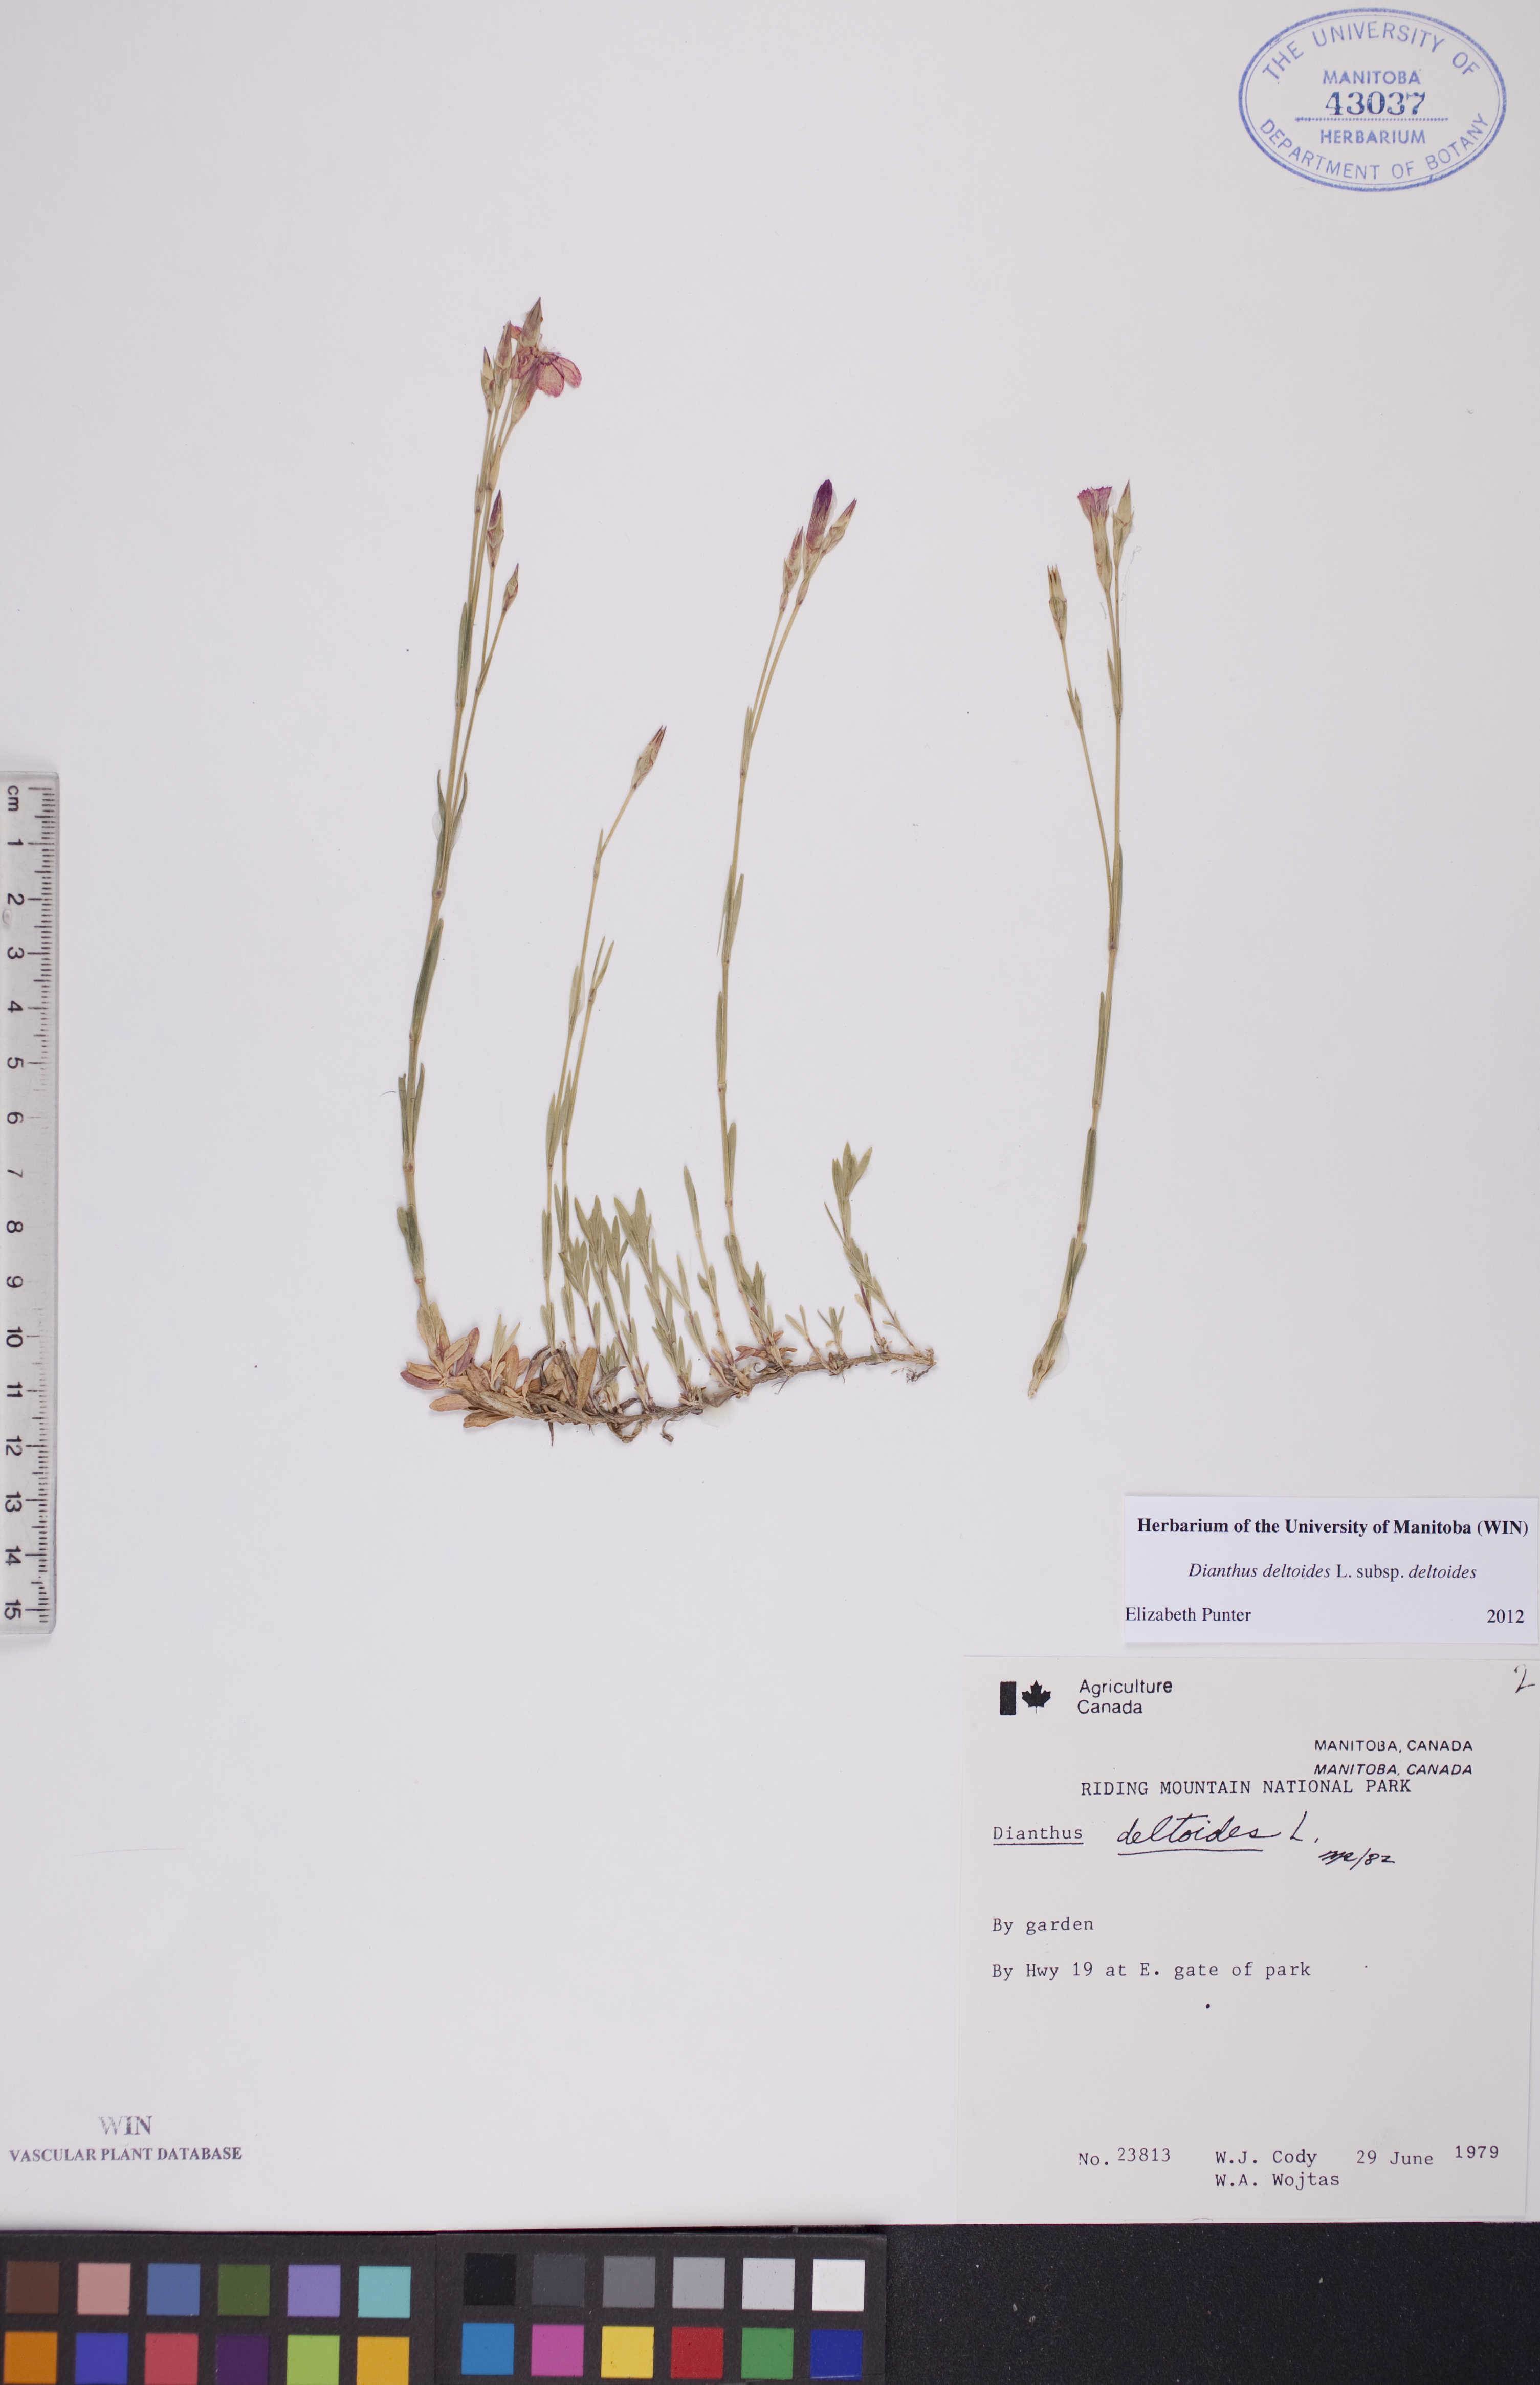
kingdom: Plantae
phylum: Tracheophyta
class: Magnoliopsida
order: Caryophyllales
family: Caryophyllaceae
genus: Dianthus
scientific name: Dianthus deltoides
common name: Maiden pink
